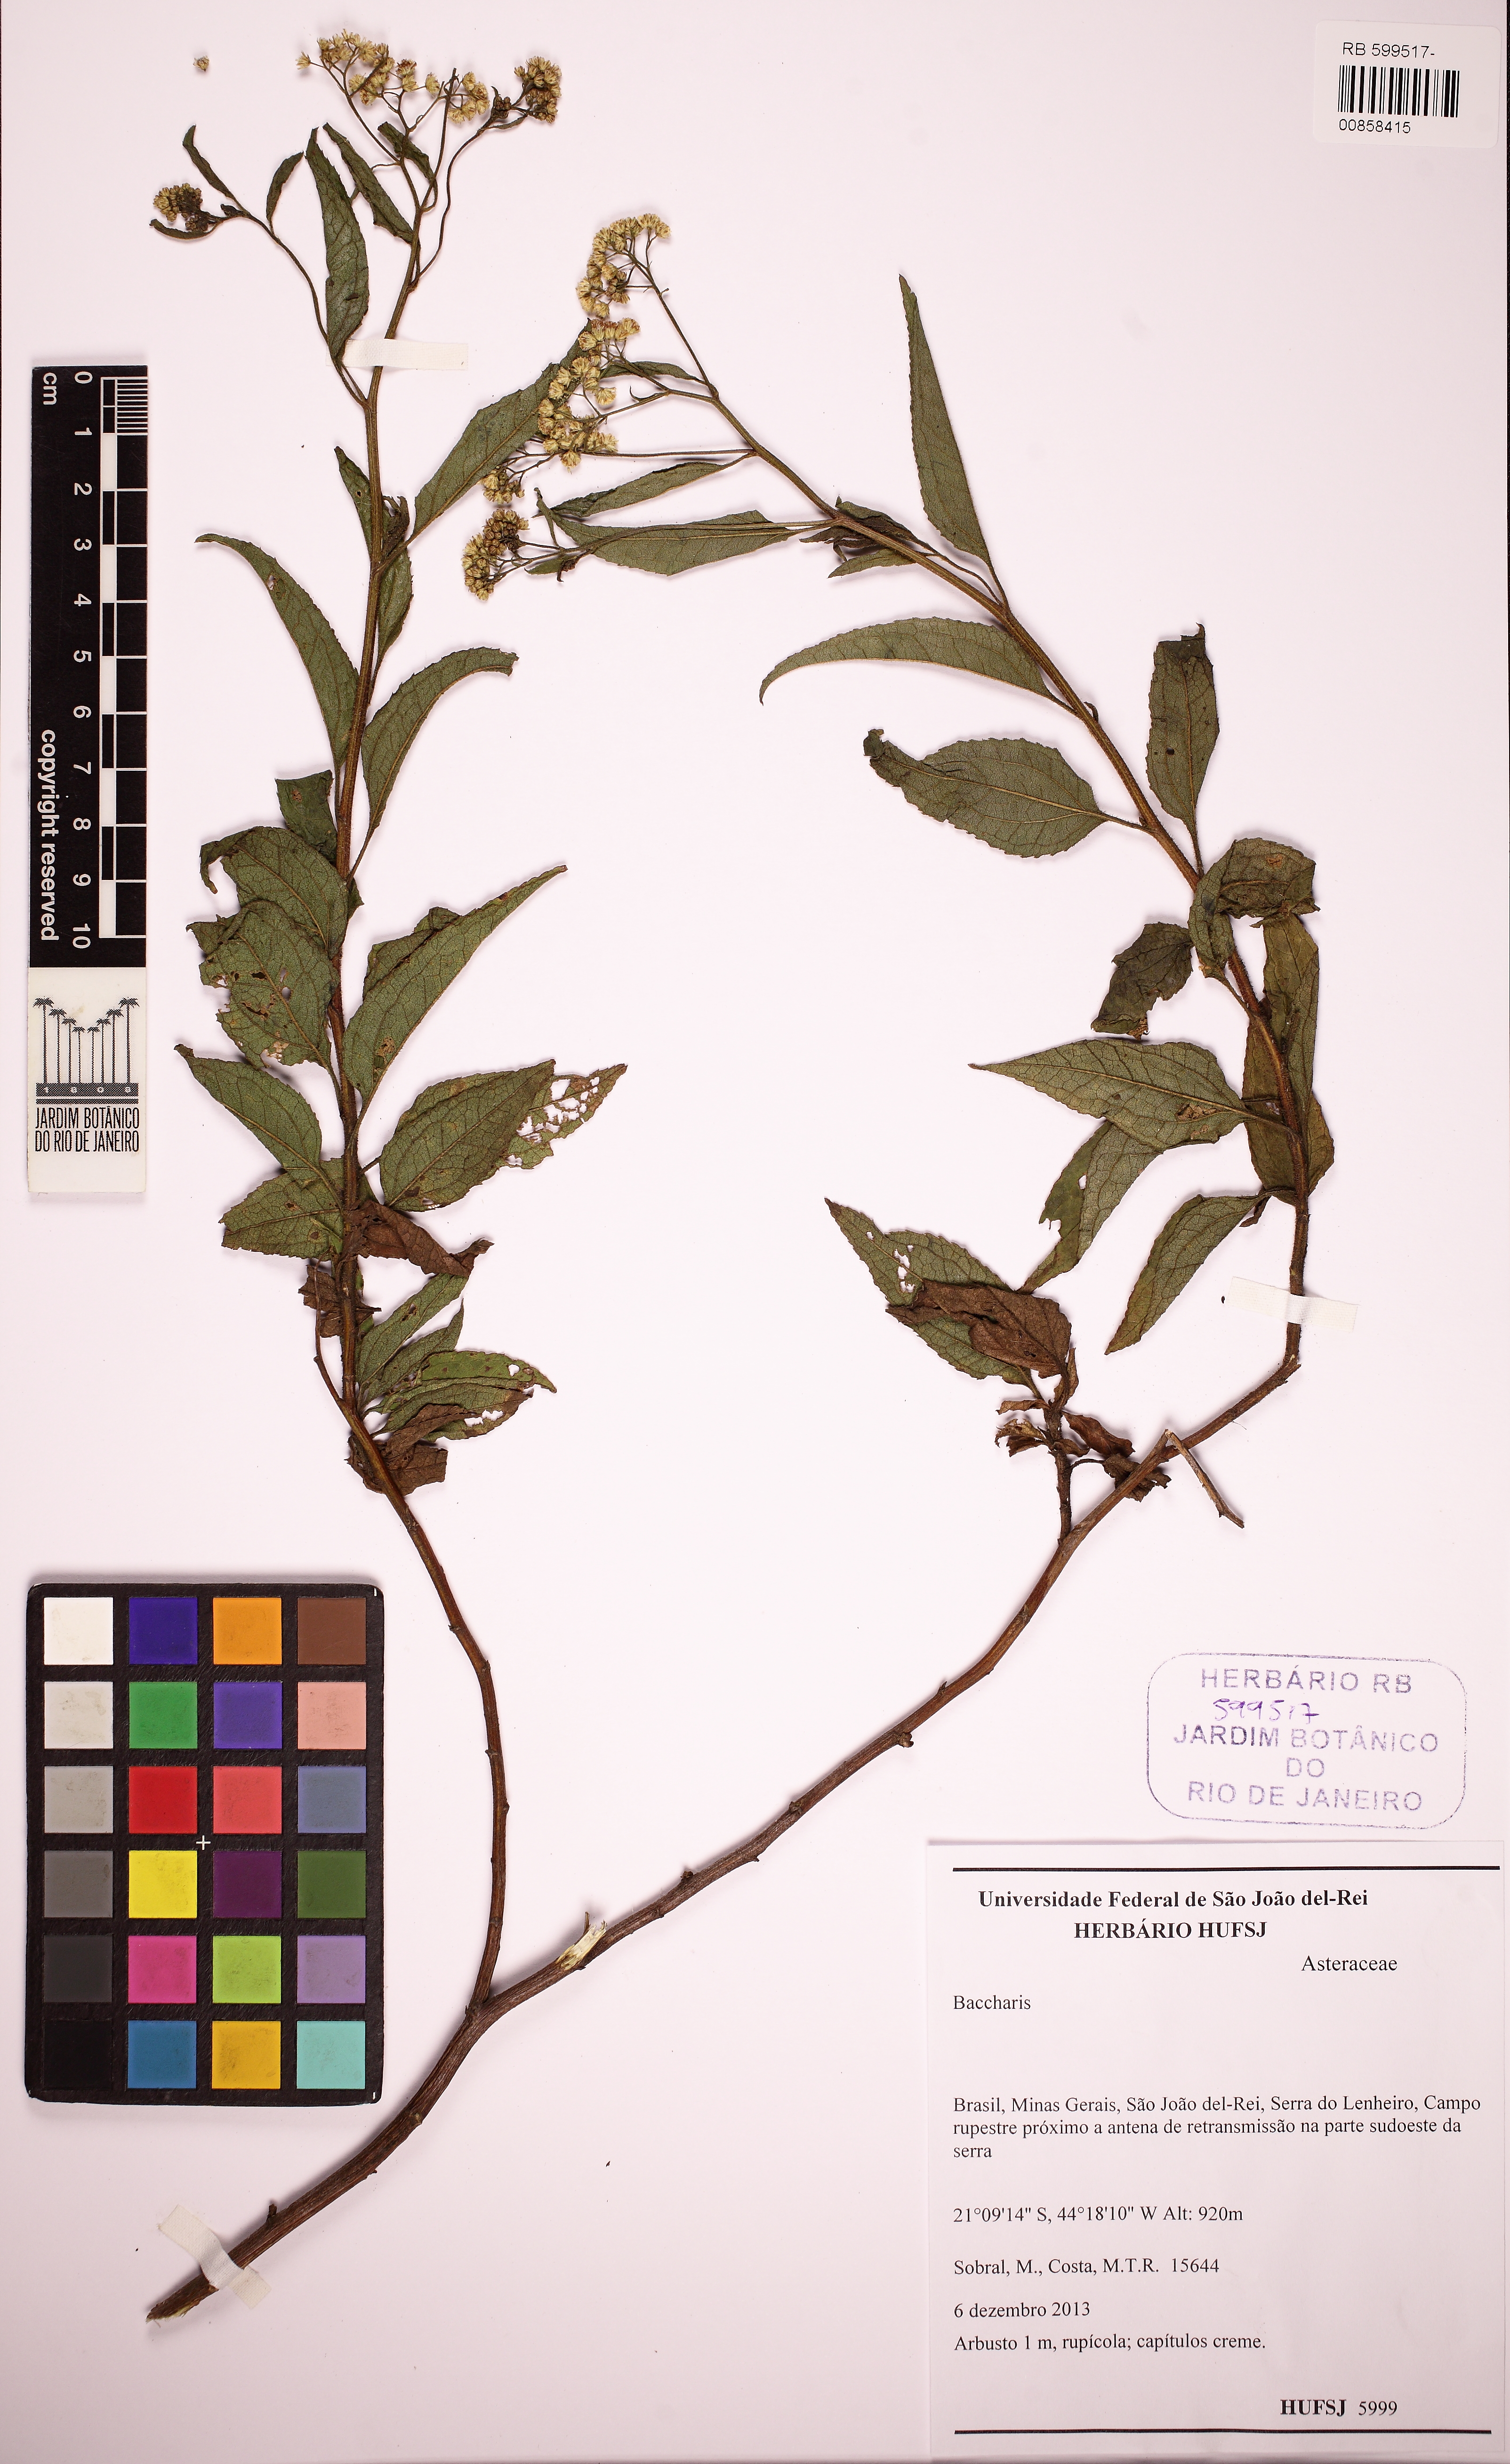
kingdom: Plantae
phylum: Tracheophyta
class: Magnoliopsida
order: Asterales
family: Asteraceae
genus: Baccharis
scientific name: Baccharis serrulata
